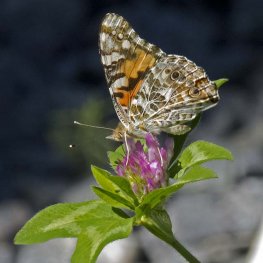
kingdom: Animalia
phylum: Arthropoda
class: Insecta
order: Lepidoptera
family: Nymphalidae
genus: Vanessa
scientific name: Vanessa cardui
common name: Painted Lady
